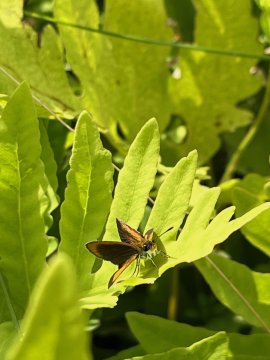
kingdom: Animalia
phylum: Arthropoda
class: Insecta
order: Lepidoptera
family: Hesperiidae
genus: Ancyloxypha
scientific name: Ancyloxypha numitor
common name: Least Skipper
